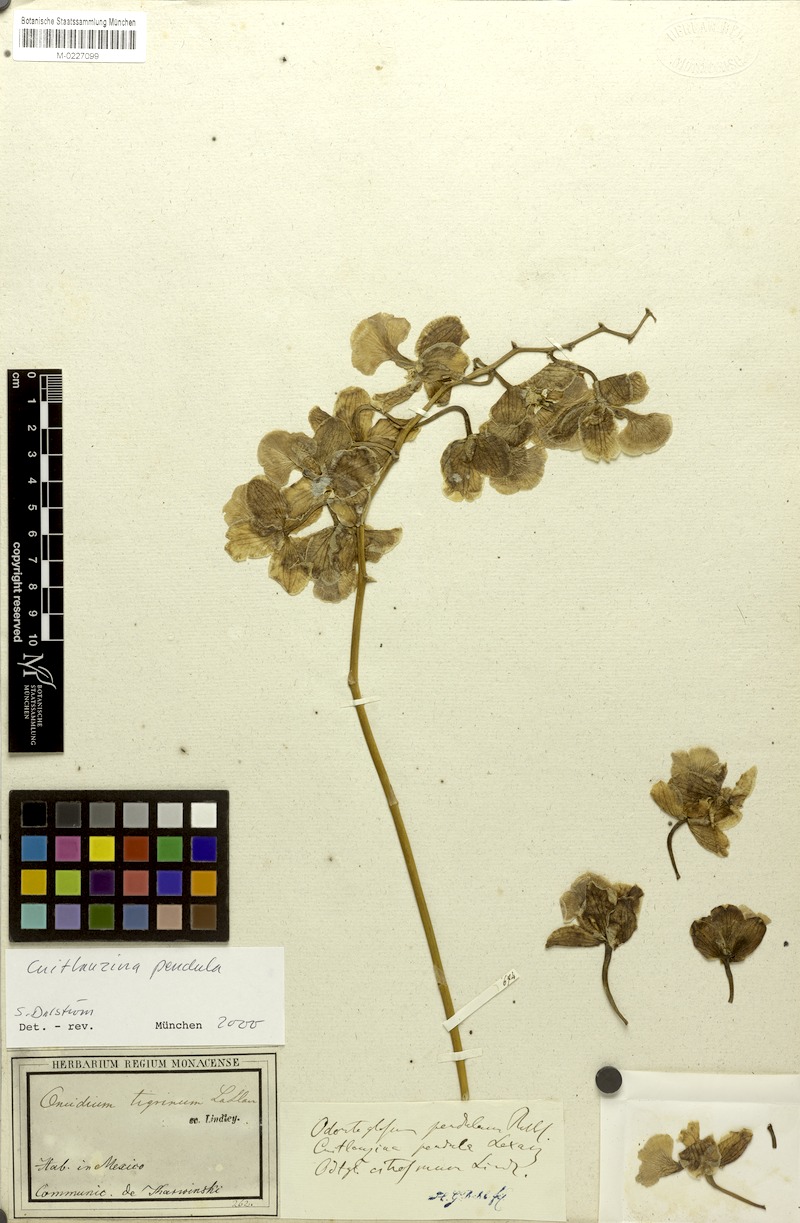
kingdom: Plantae
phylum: Tracheophyta
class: Liliopsida
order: Asparagales
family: Orchidaceae
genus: Cuitlauzina
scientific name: Cuitlauzina pendula
